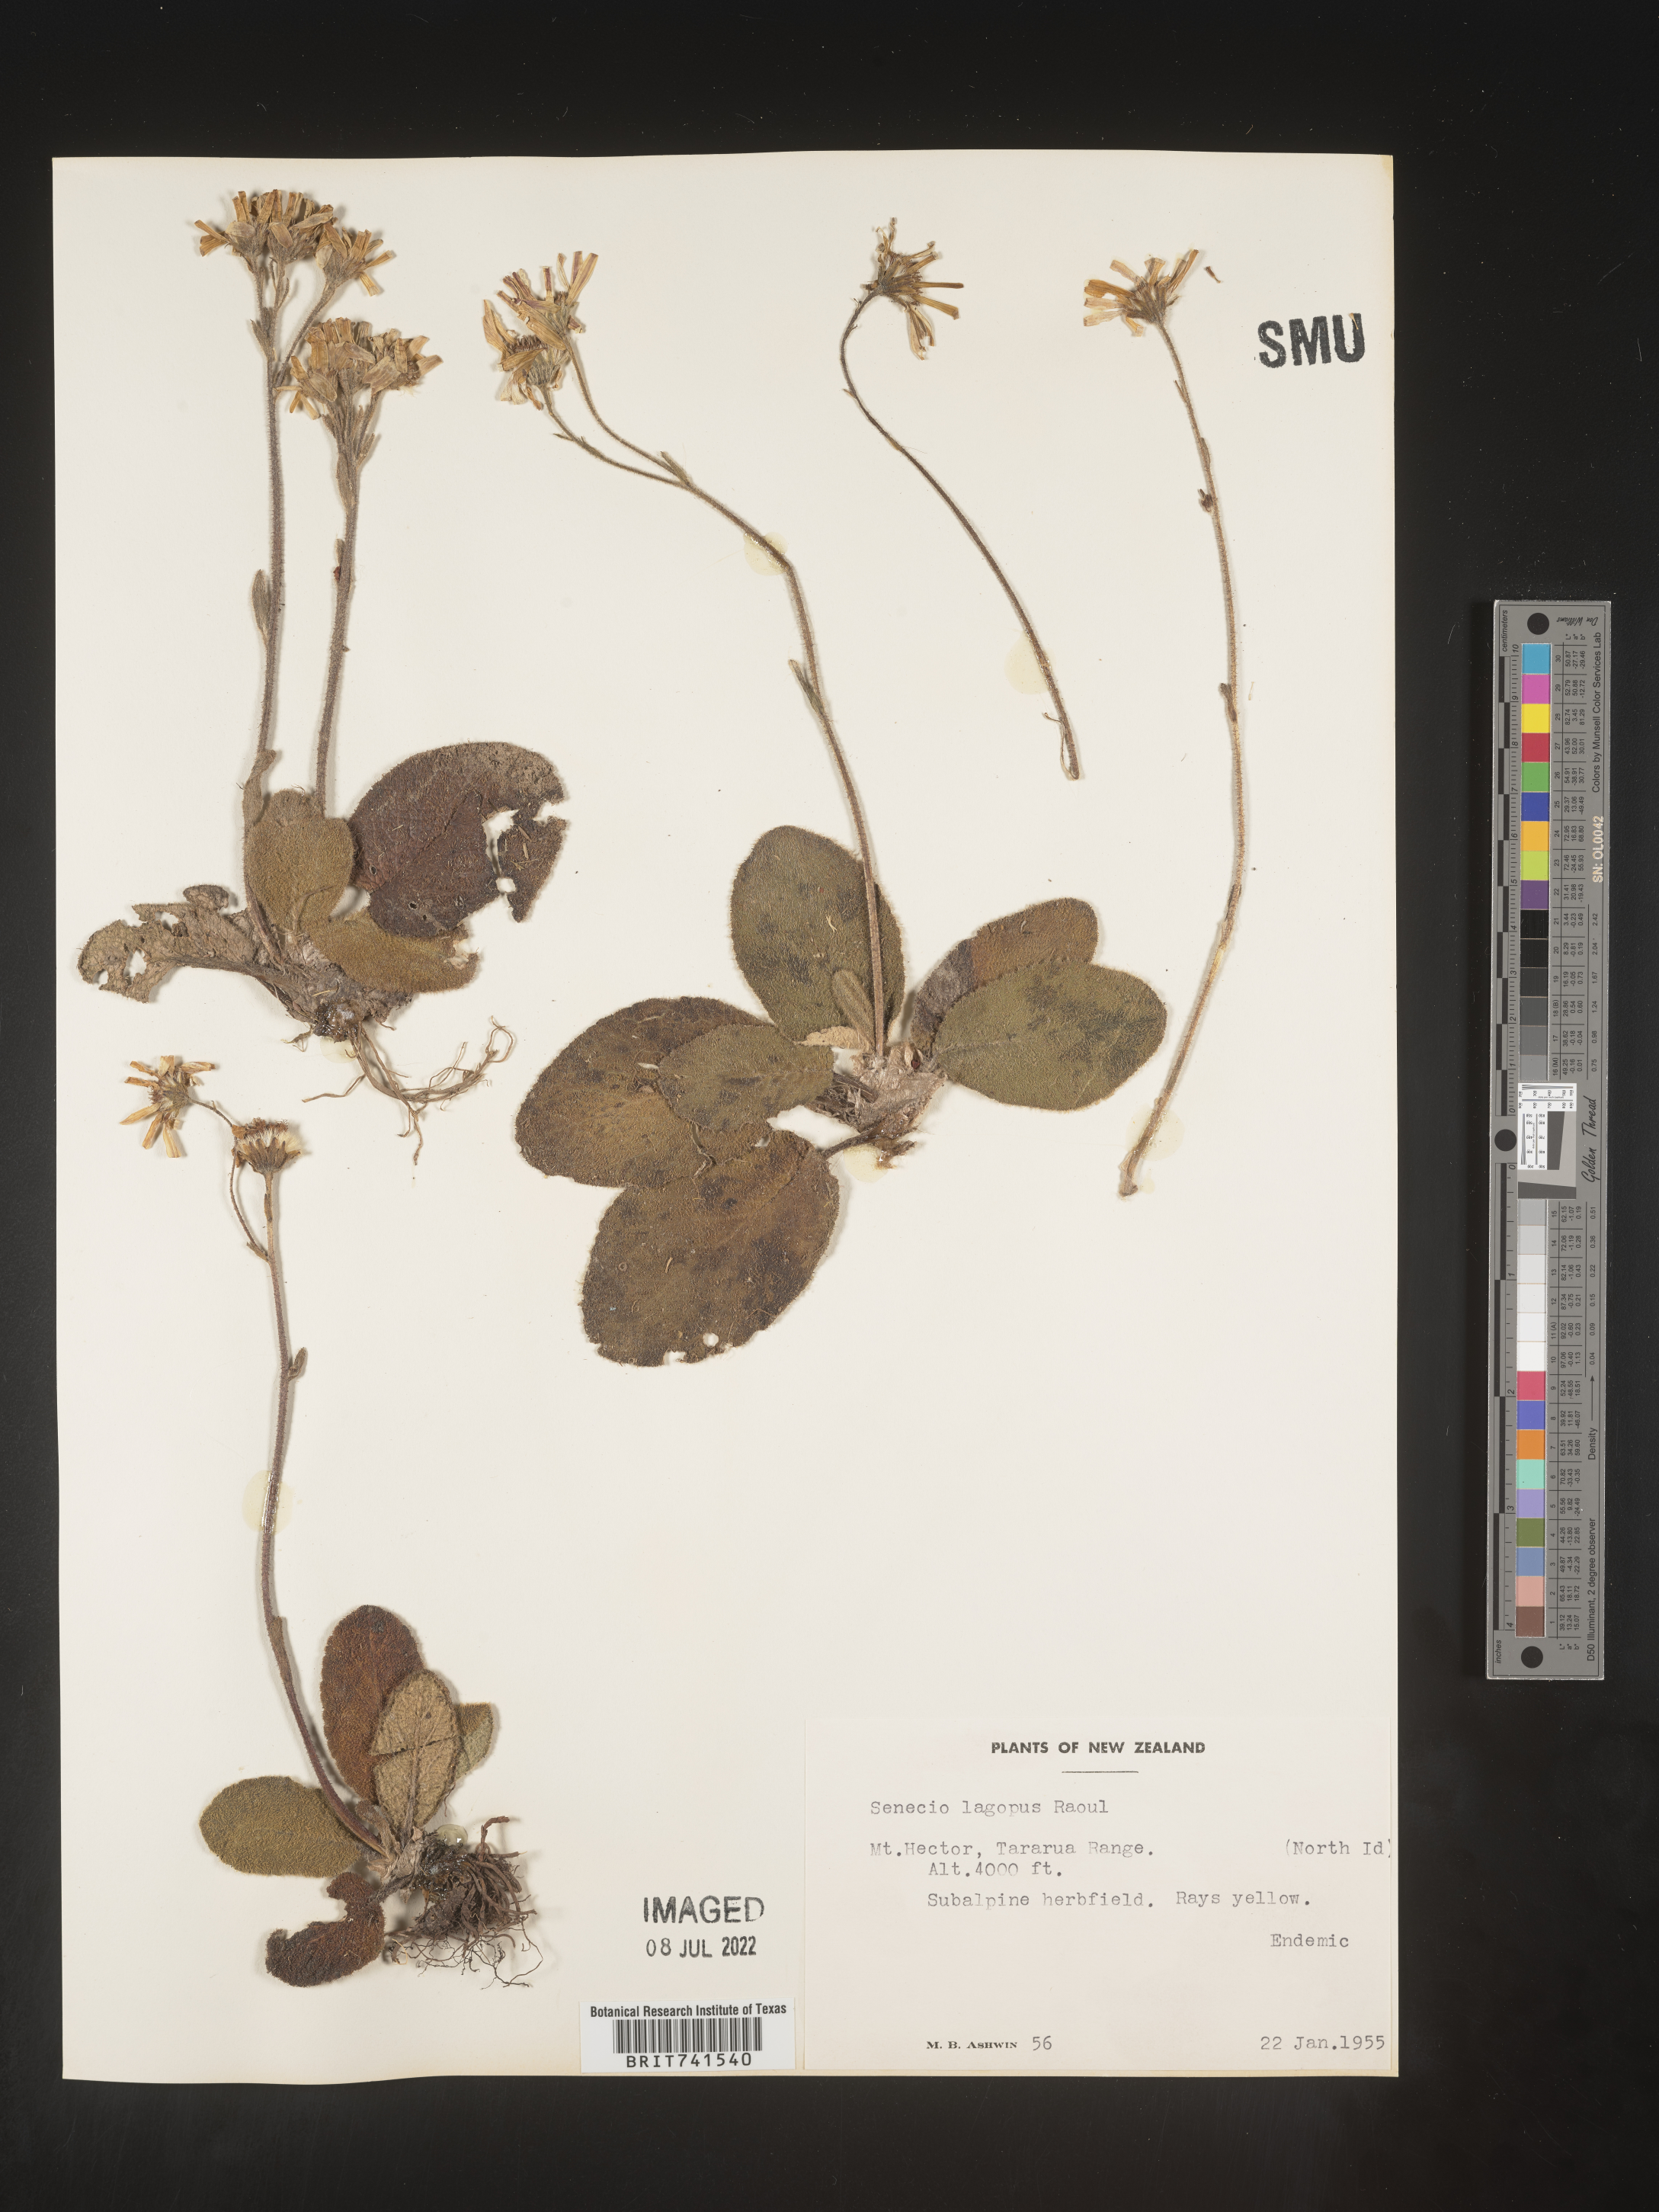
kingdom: Plantae
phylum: Tracheophyta
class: Magnoliopsida
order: Asterales
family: Asteraceae
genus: Senecio
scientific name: Senecio
